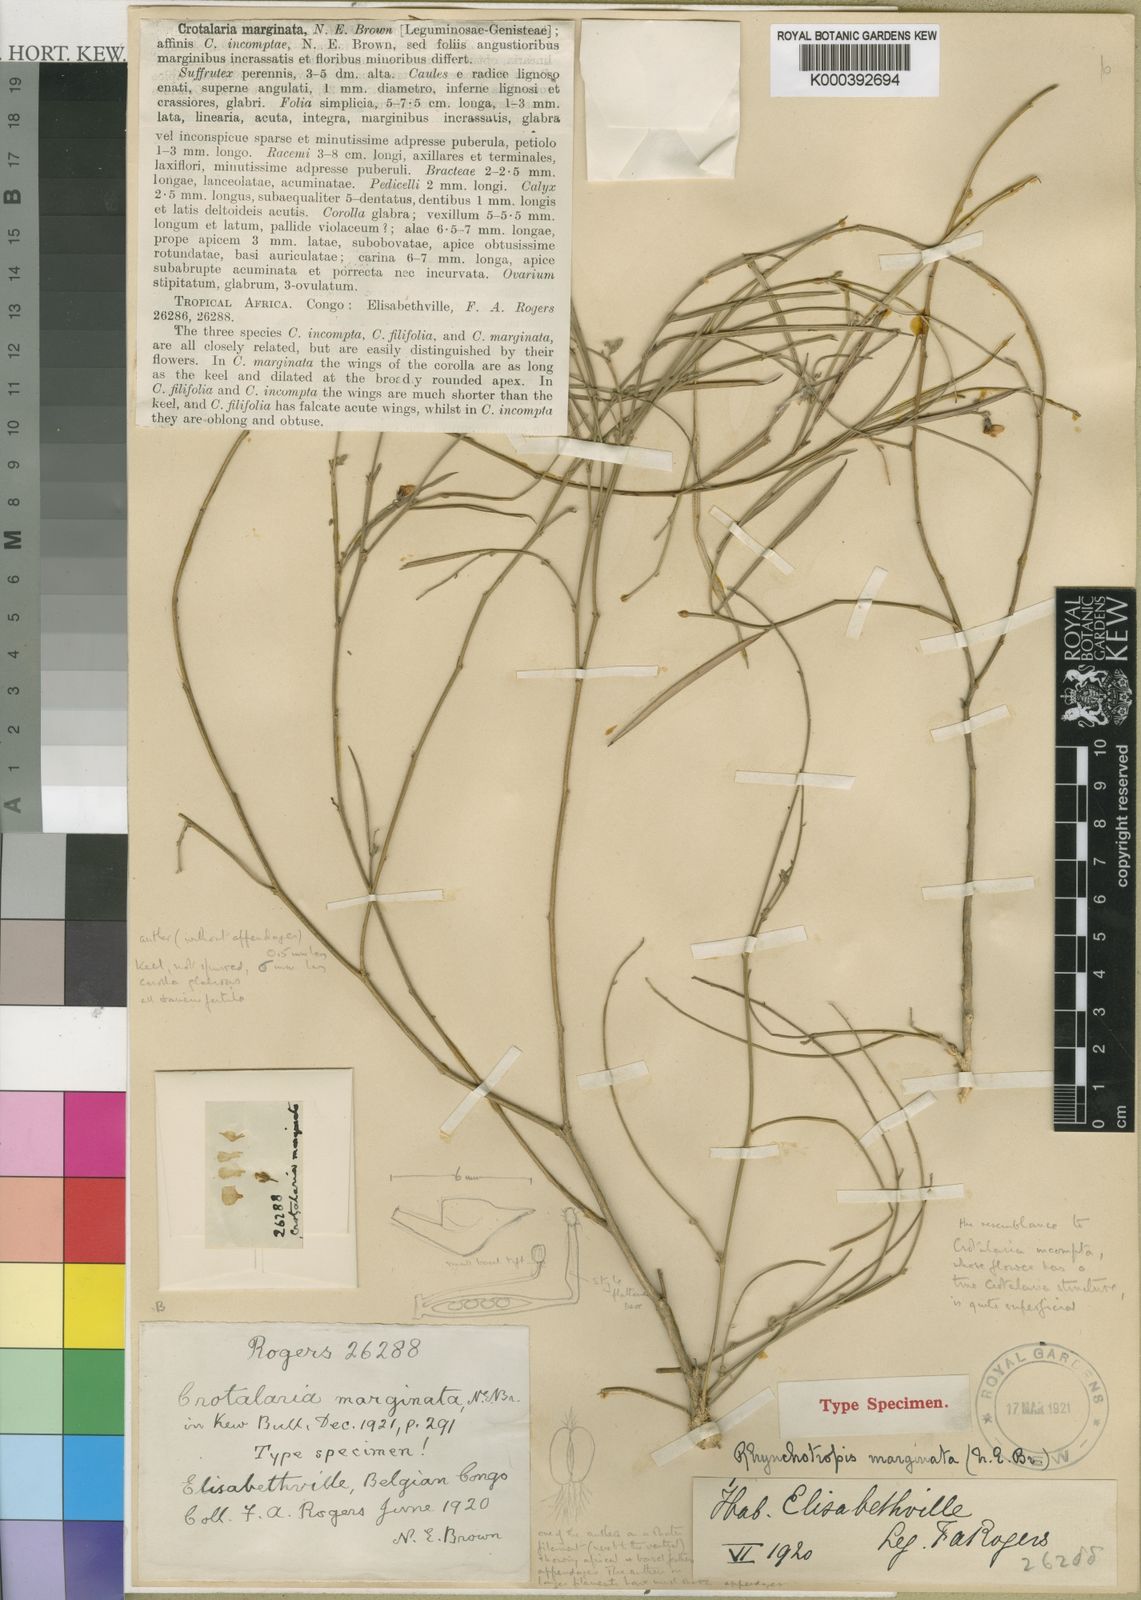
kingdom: Plantae
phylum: Tracheophyta
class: Magnoliopsida
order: Fabales
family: Fabaceae
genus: Rhynchotropis
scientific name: Rhynchotropis marginata
